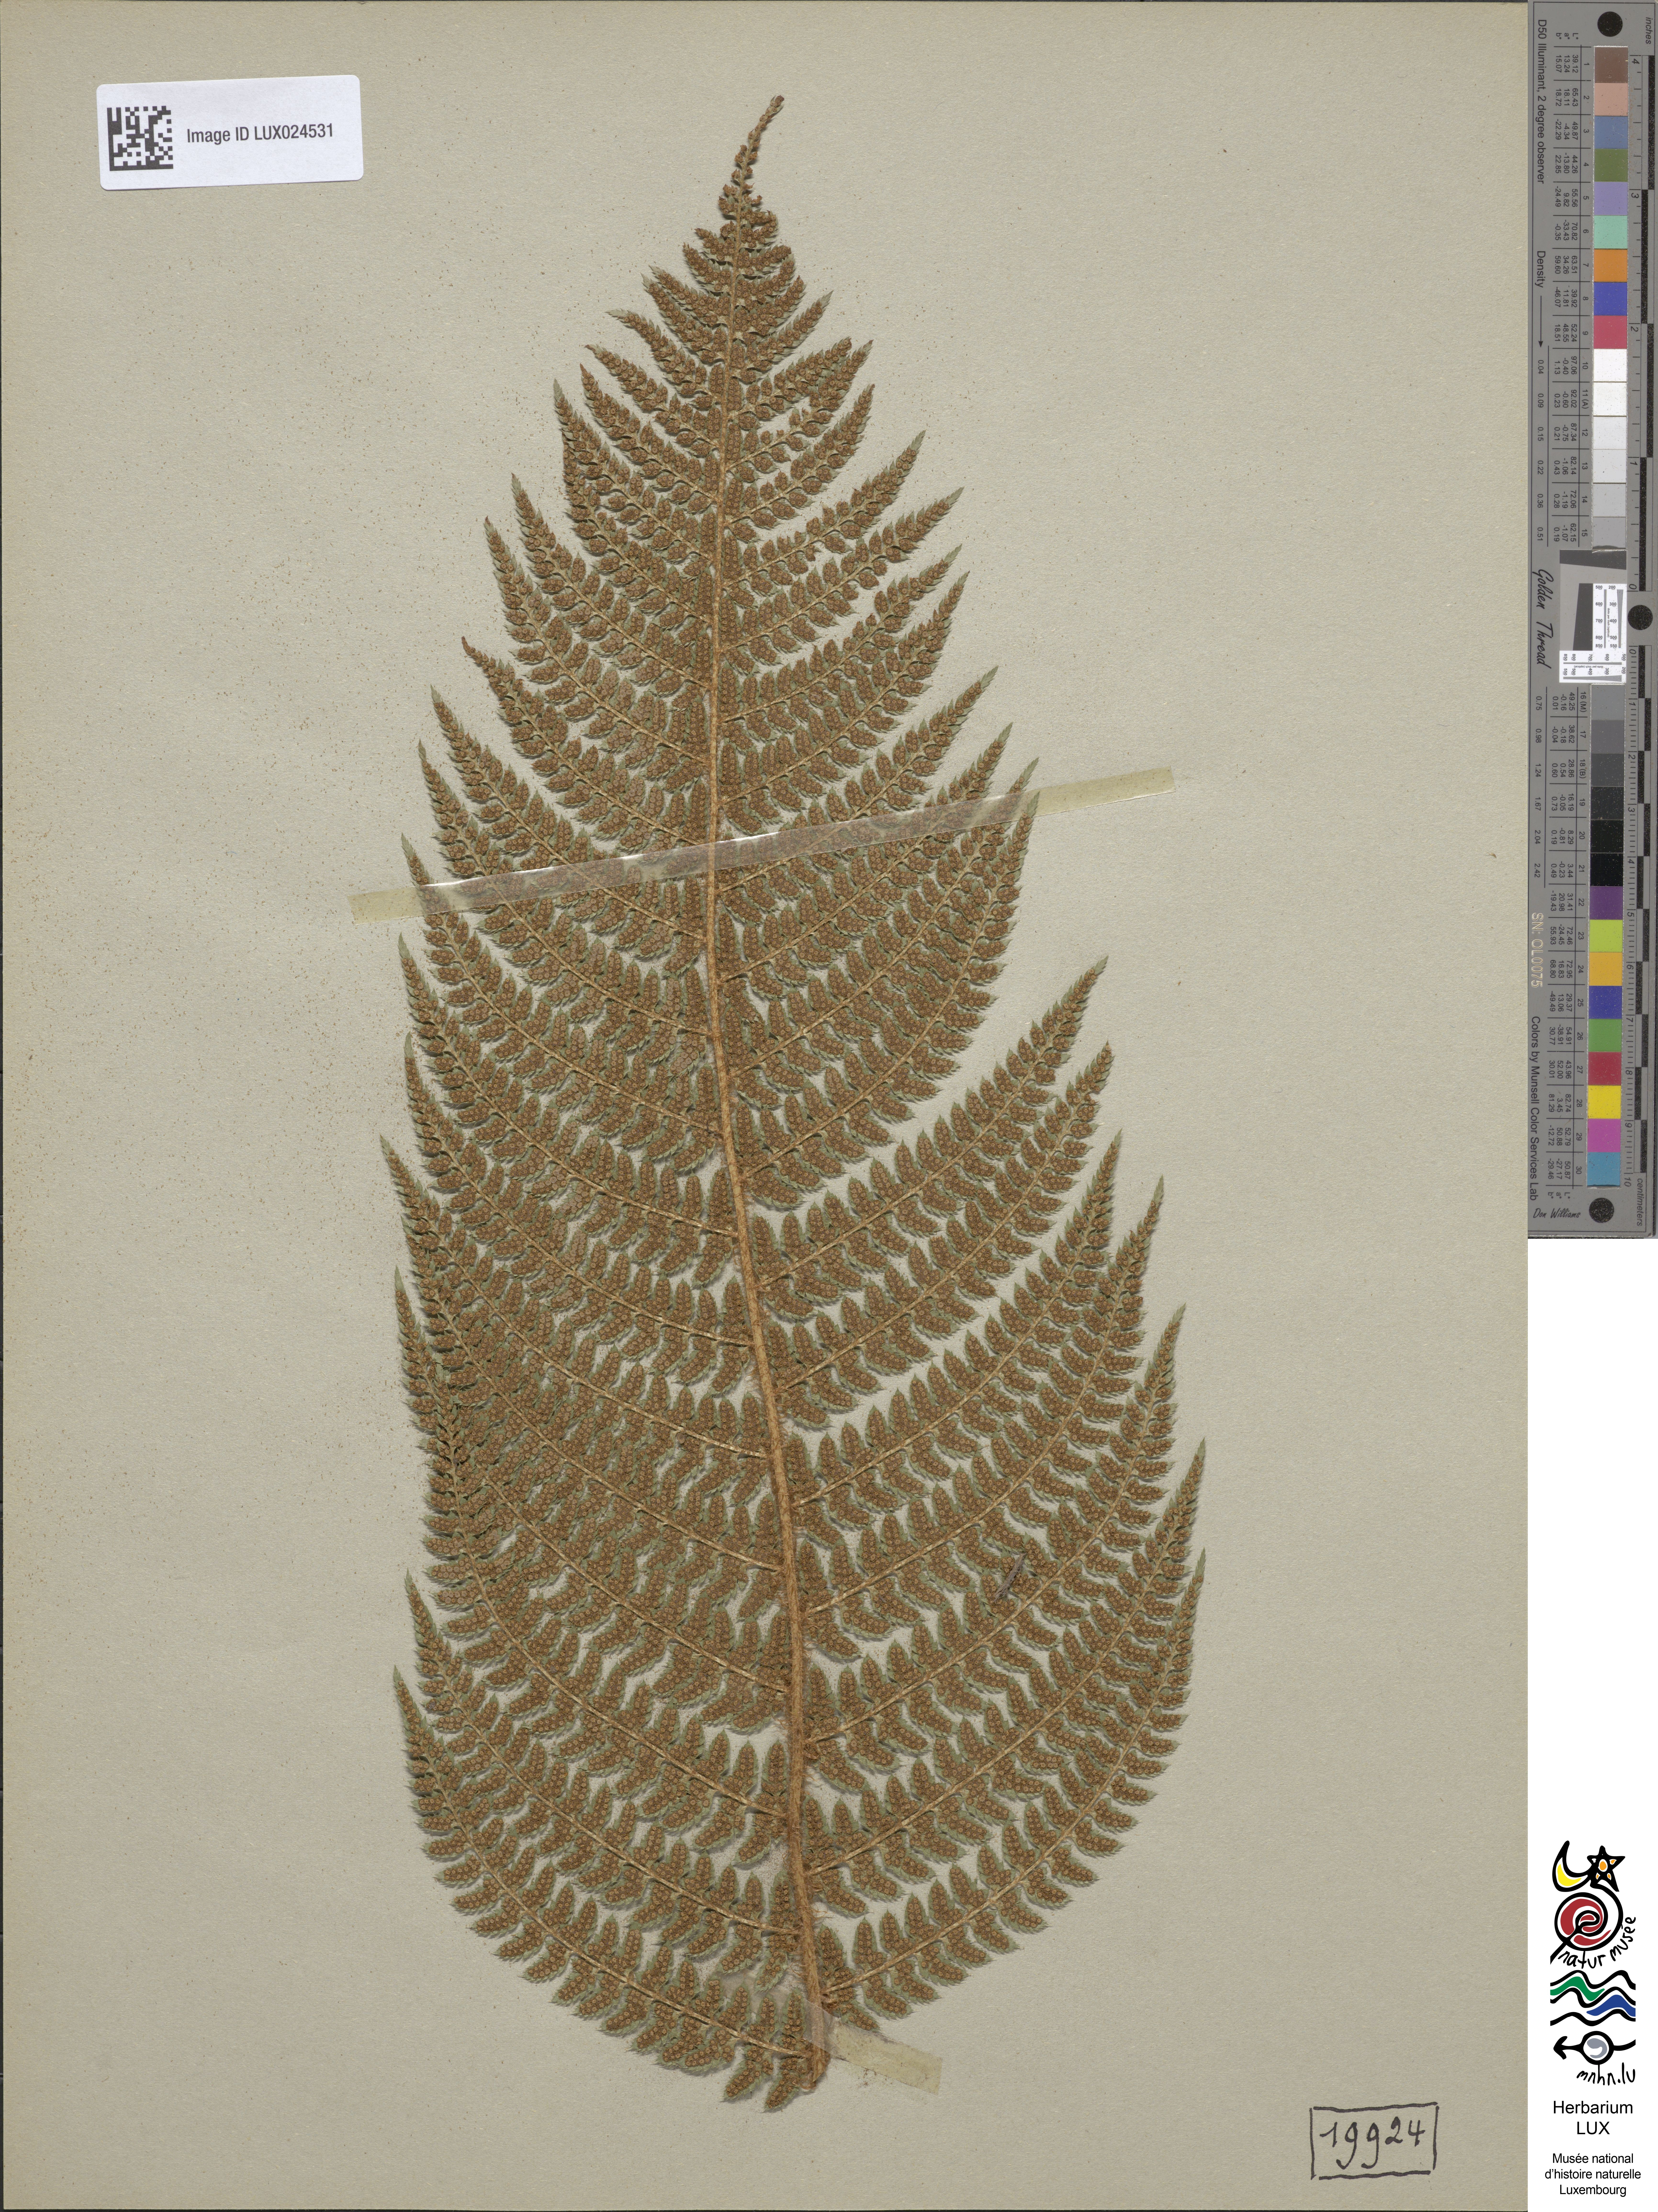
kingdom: Plantae
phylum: Tracheophyta
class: Polypodiopsida
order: Polypodiales
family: Dryopteridaceae
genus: Polystichum
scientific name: Polystichum setiferum
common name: Soft shield-fern
